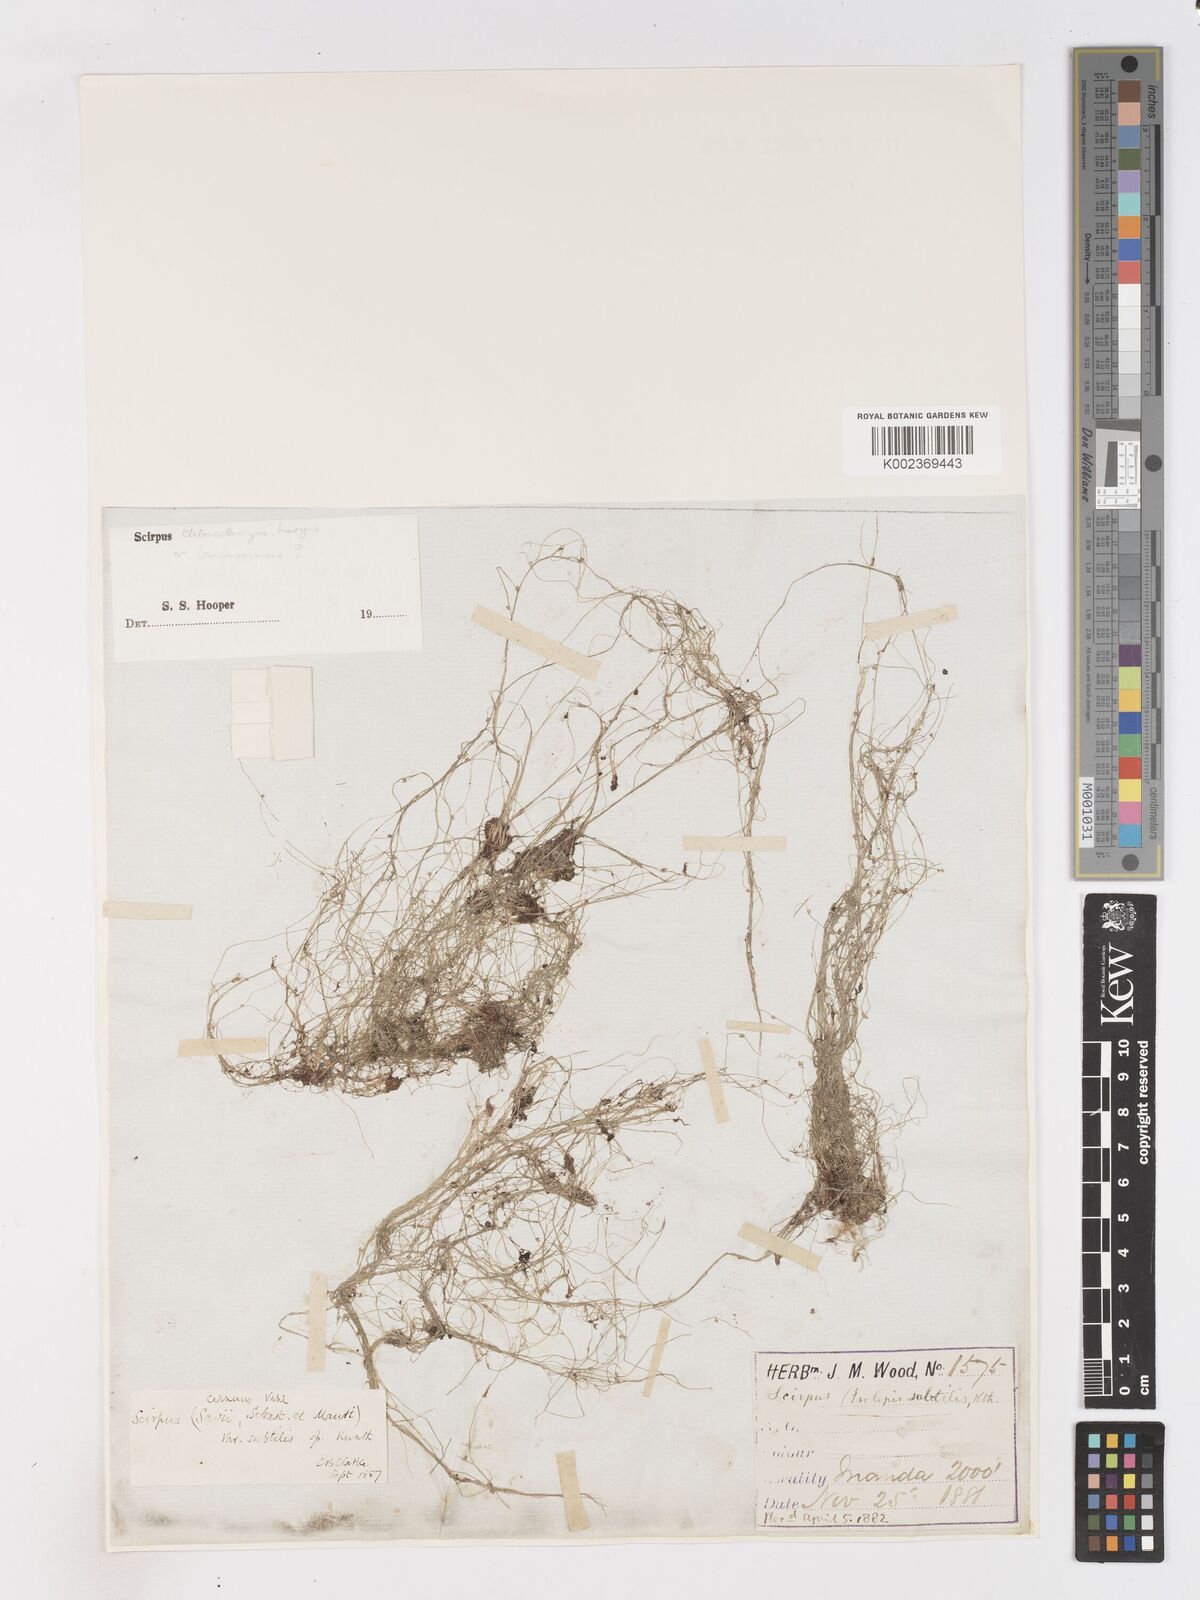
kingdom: Plantae
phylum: Tracheophyta
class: Liliopsida
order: Poales
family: Cyperaceae
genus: Isolepis
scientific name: Isolepis tenuissima
